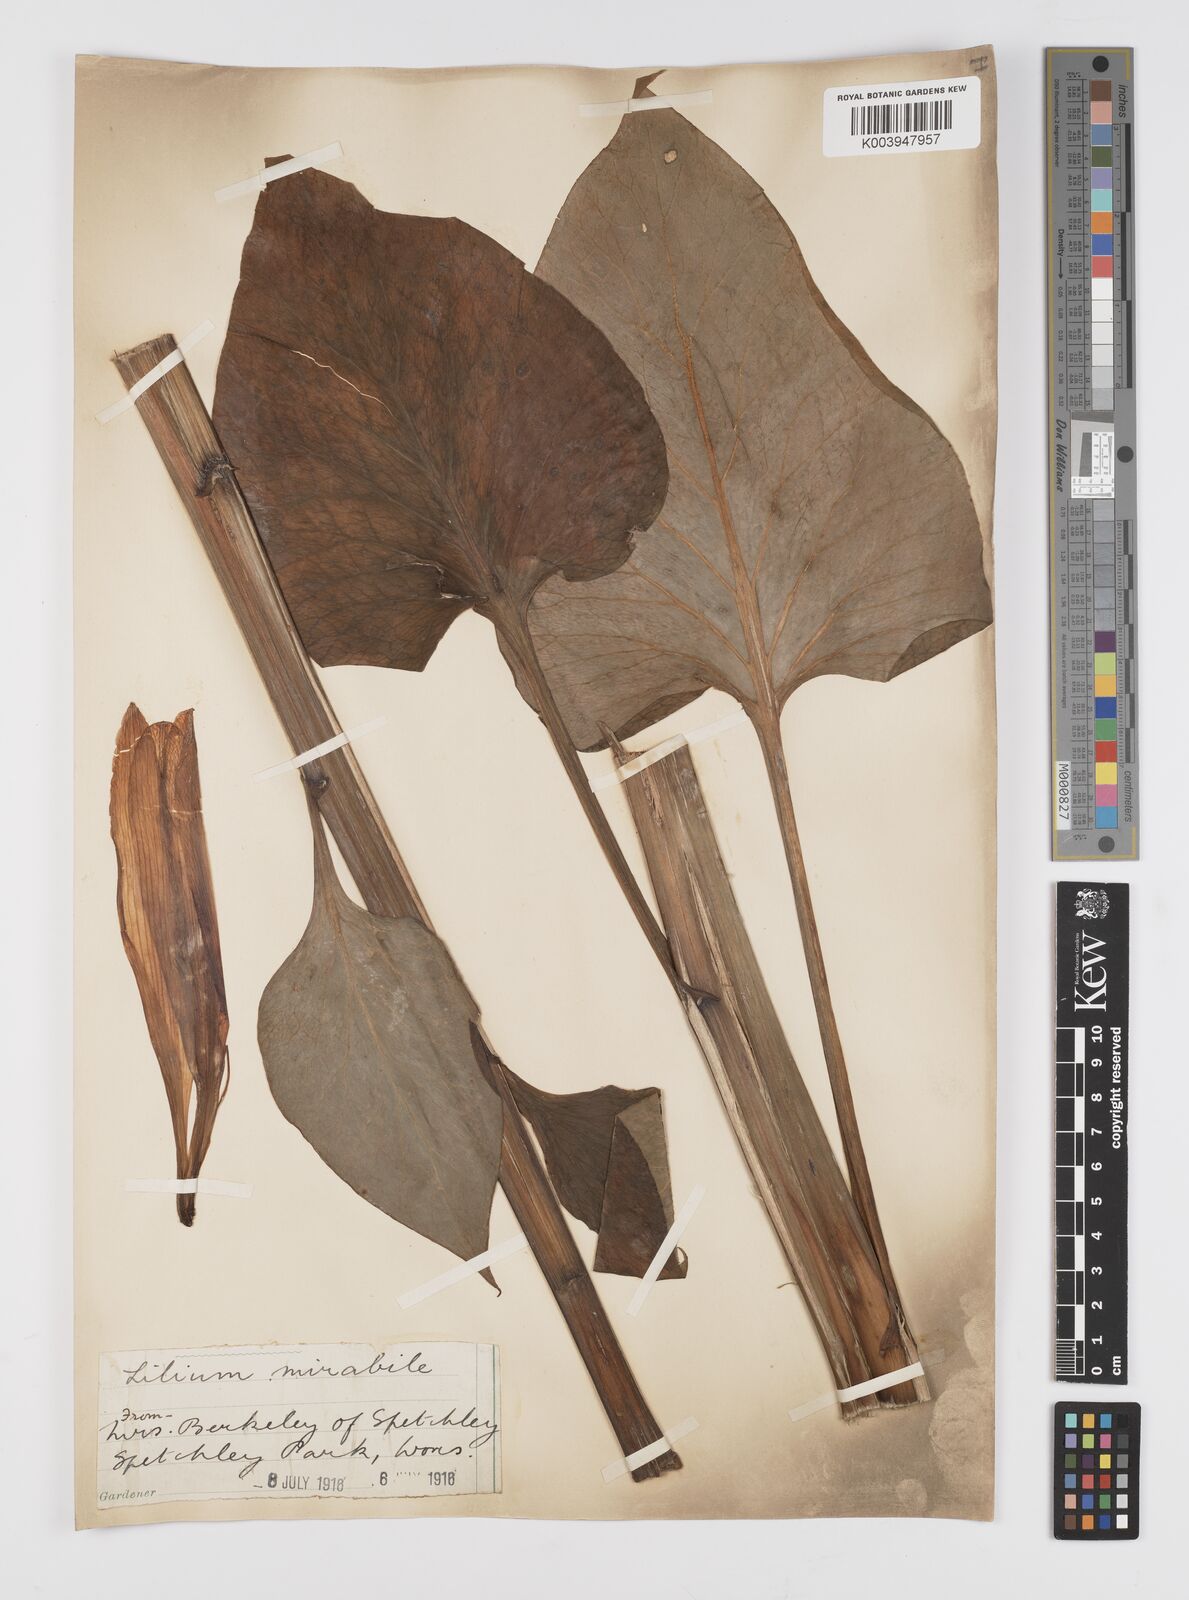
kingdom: Plantae
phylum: Tracheophyta
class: Liliopsida
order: Liliales
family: Liliaceae
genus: Cardiocrinum
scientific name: Cardiocrinum giganteum
